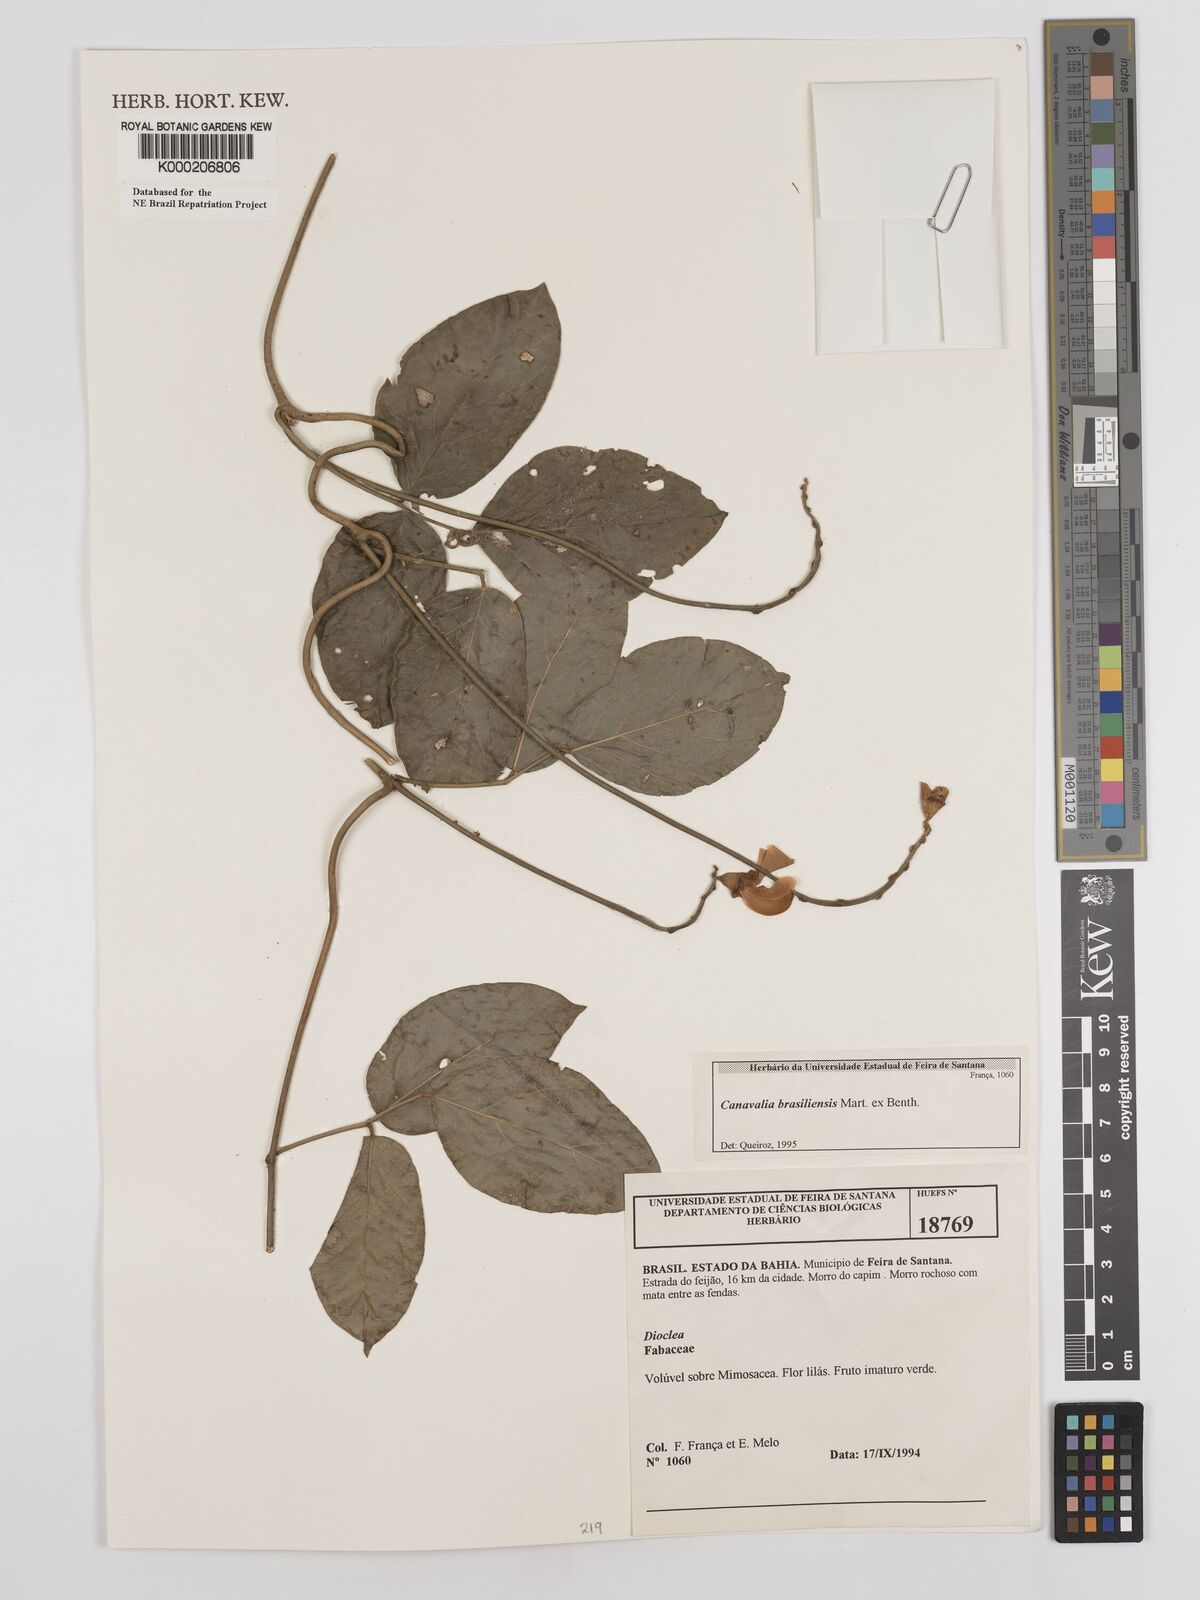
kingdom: Plantae
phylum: Tracheophyta
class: Magnoliopsida
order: Fabales
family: Fabaceae
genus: Canavalia
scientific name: Canavalia brasiliensis
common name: Barbicou-bean
